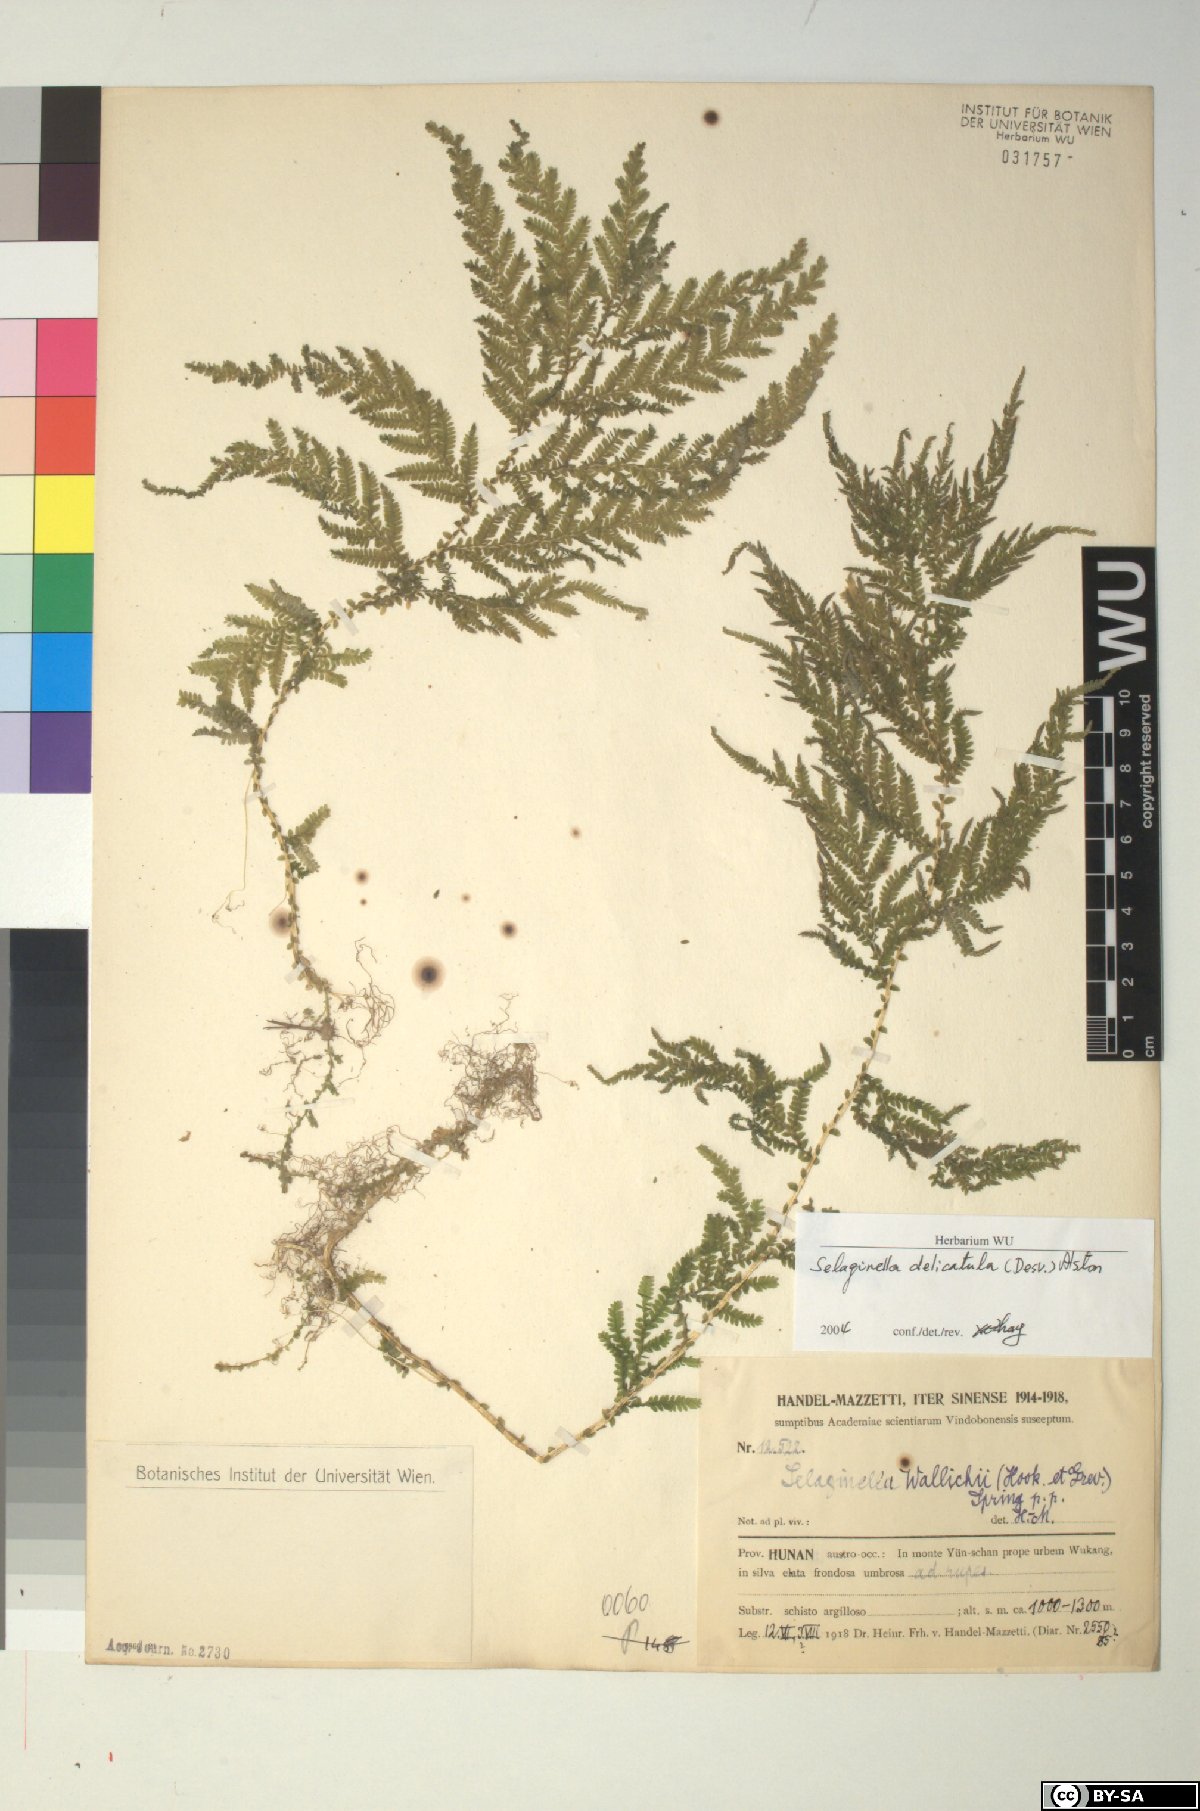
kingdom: Plantae
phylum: Tracheophyta
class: Lycopodiopsida
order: Selaginellales
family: Selaginellaceae
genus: Selaginella
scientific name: Selaginella delicatula
